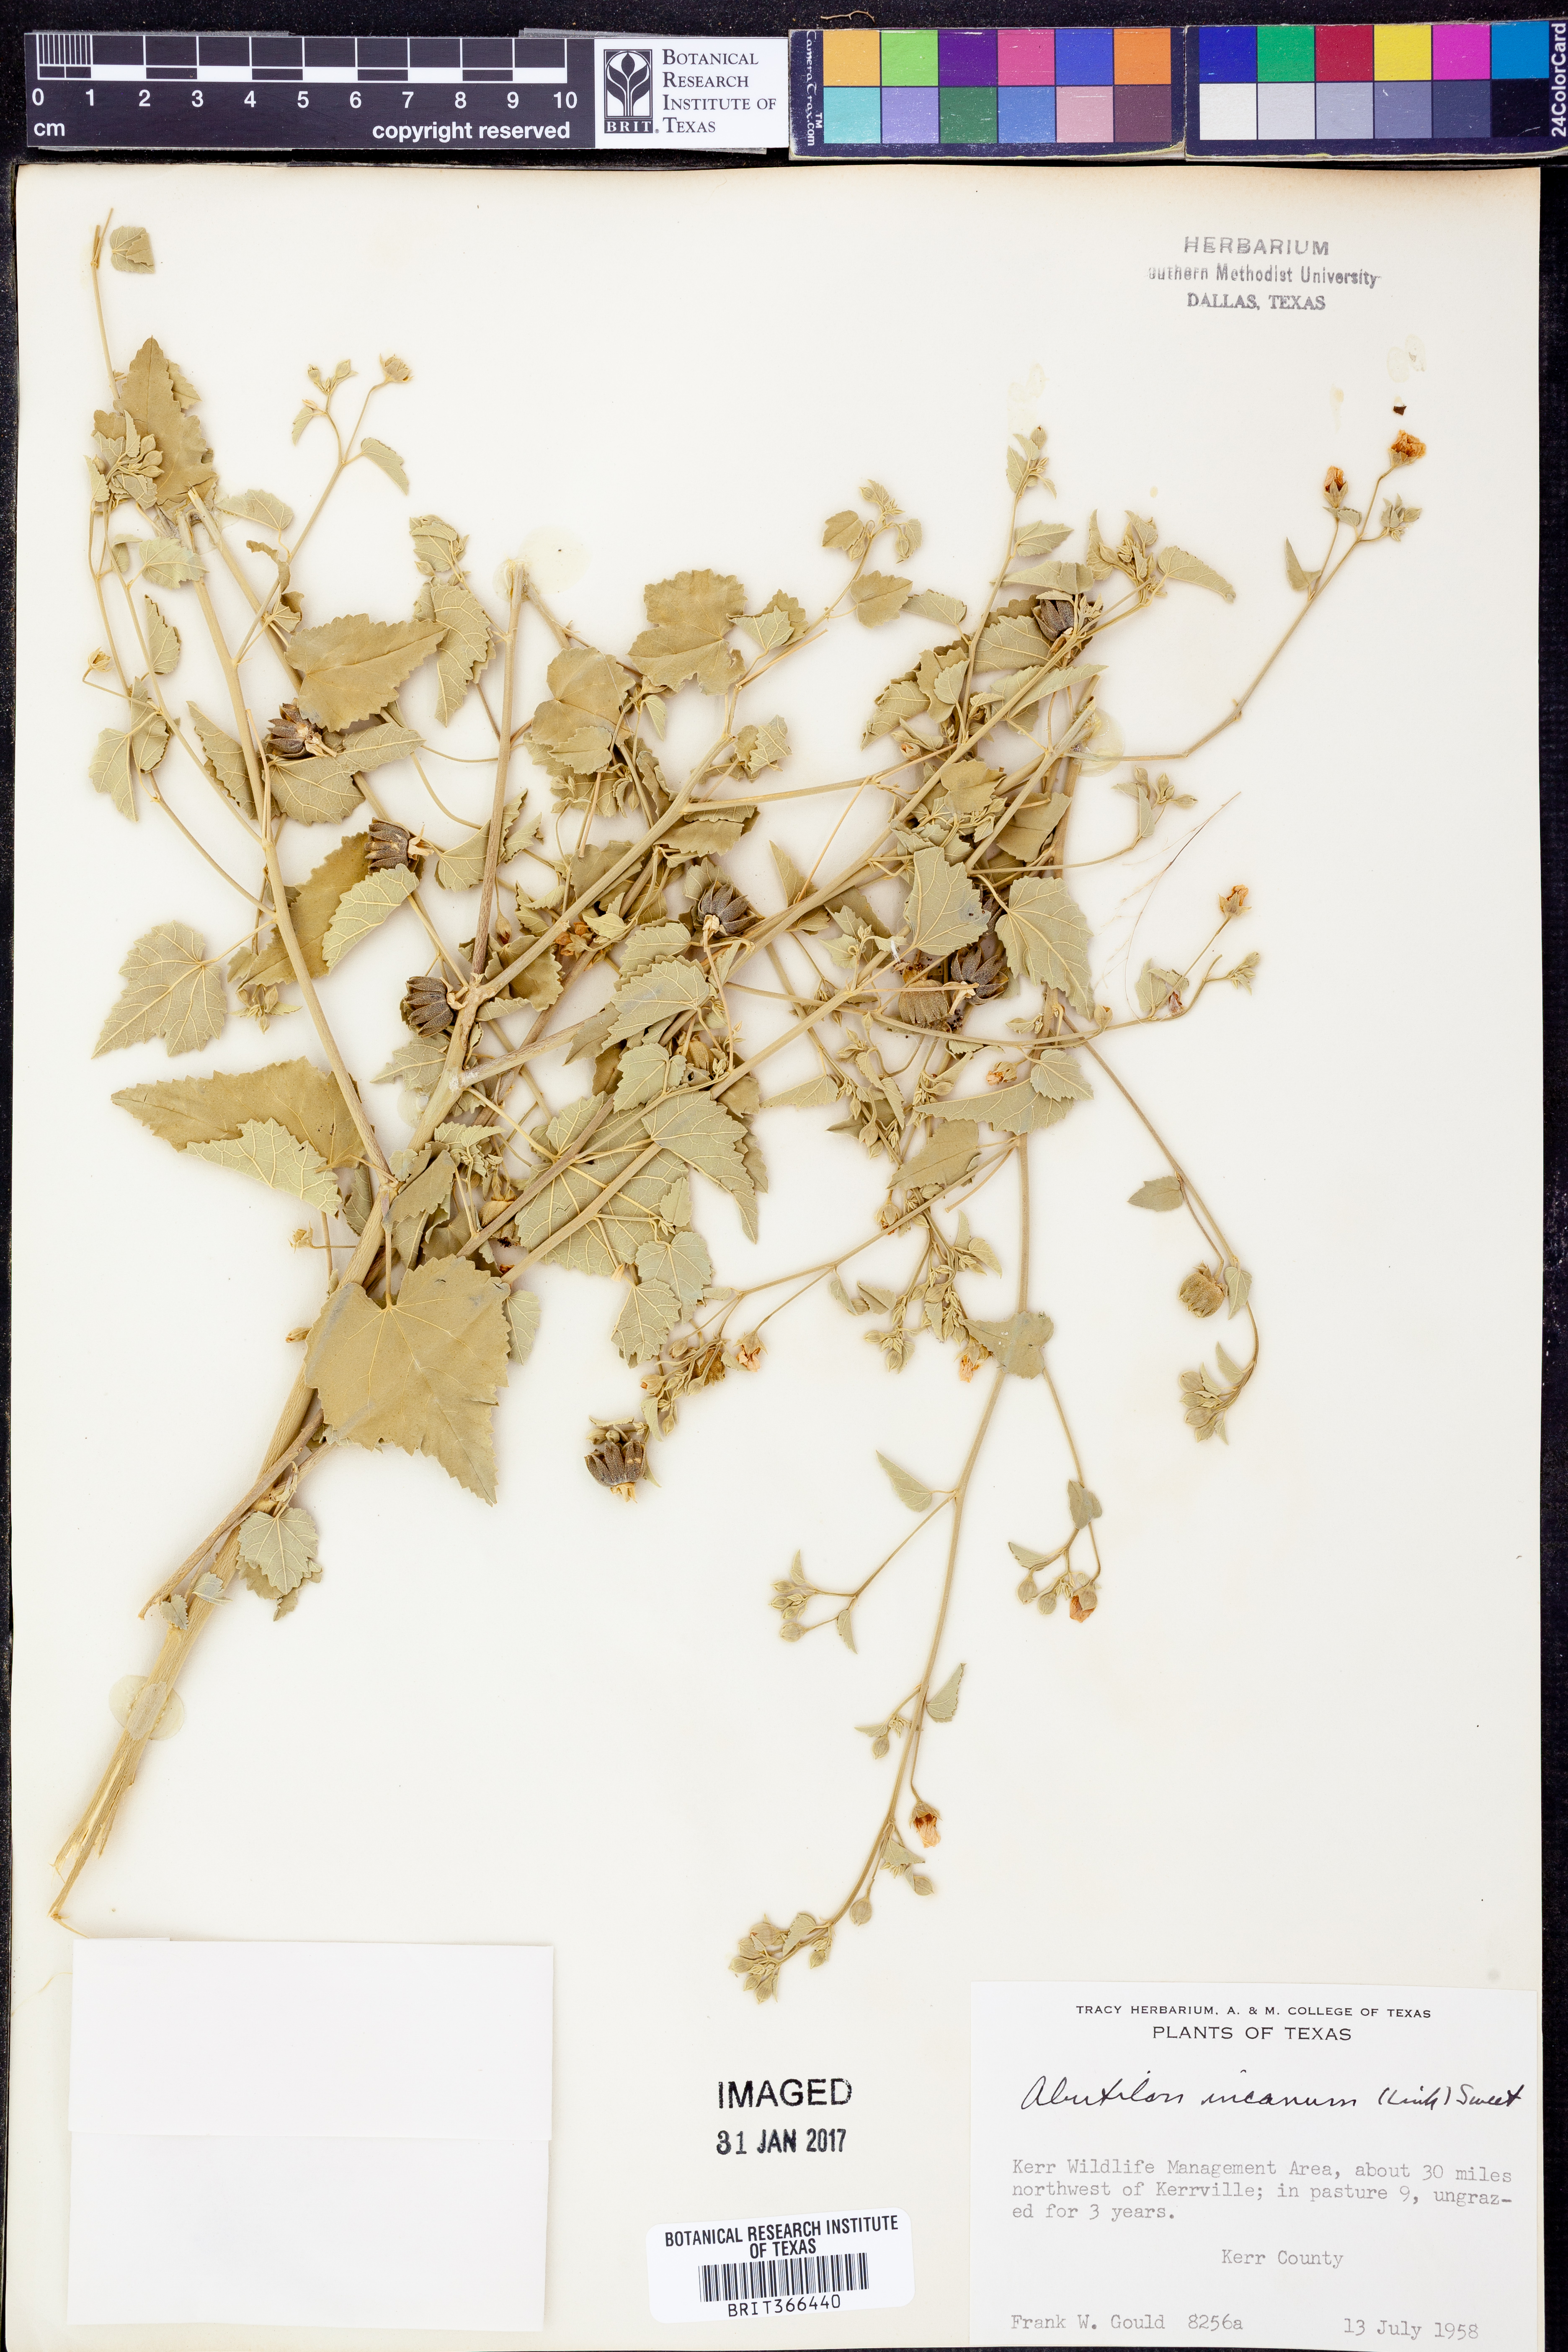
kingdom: Plantae
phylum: Tracheophyta
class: Magnoliopsida
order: Malvales
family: Malvaceae
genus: Abutilon
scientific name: Abutilon incanum
